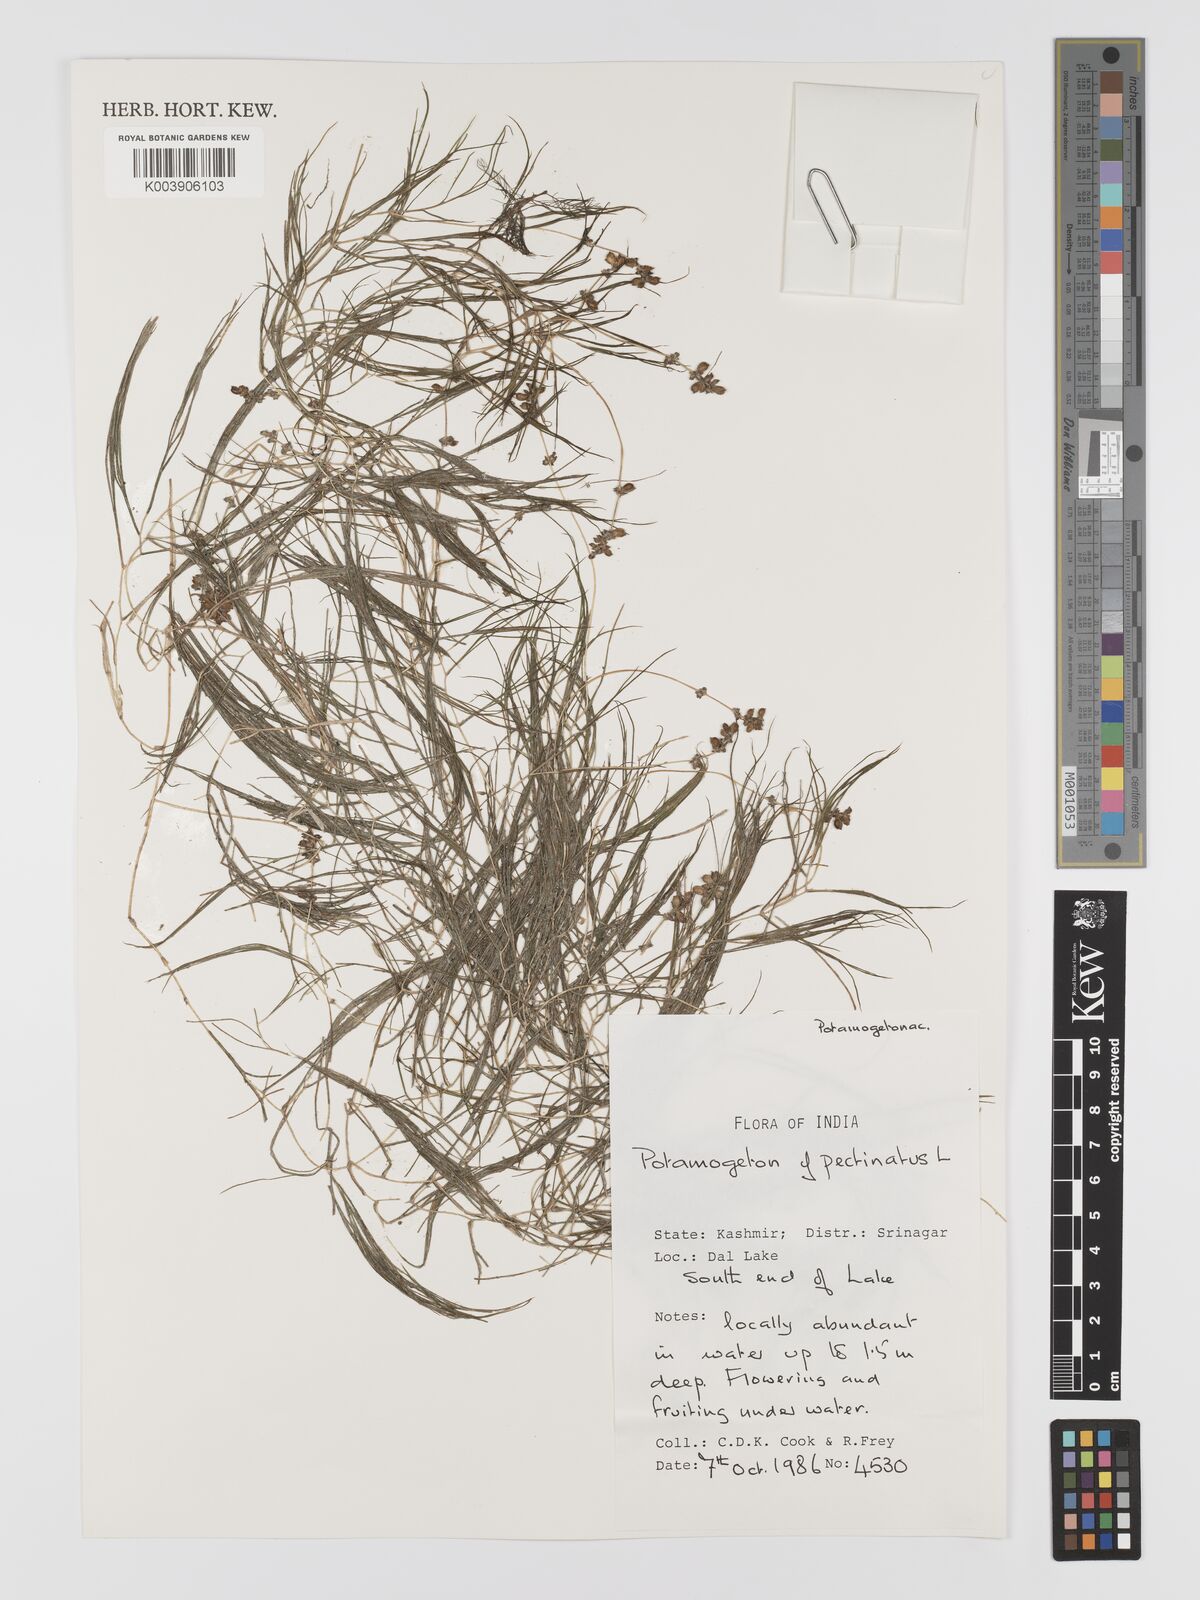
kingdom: Plantae
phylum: Tracheophyta
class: Liliopsida
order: Alismatales
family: Potamogetonaceae
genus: Stuckenia
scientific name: Stuckenia pectinata
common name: Sago pondweed
